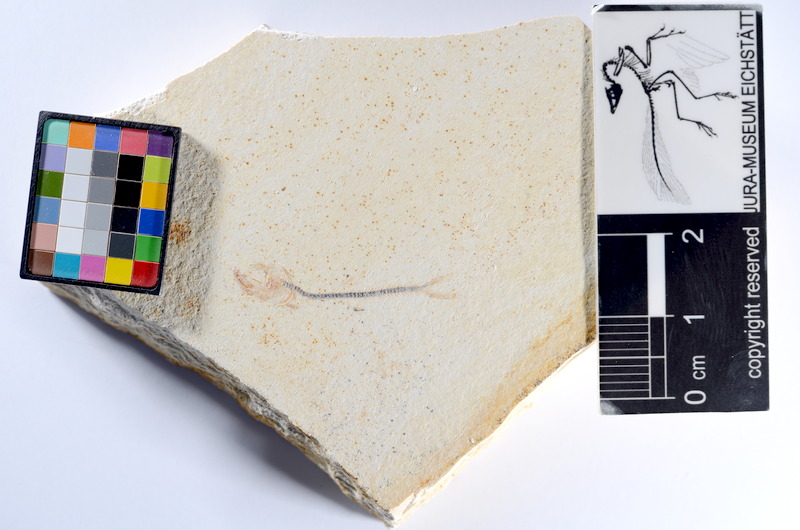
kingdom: Animalia
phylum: Chordata
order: Salmoniformes
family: Orthogonikleithridae
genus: Orthogonikleithrus
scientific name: Orthogonikleithrus hoelli
